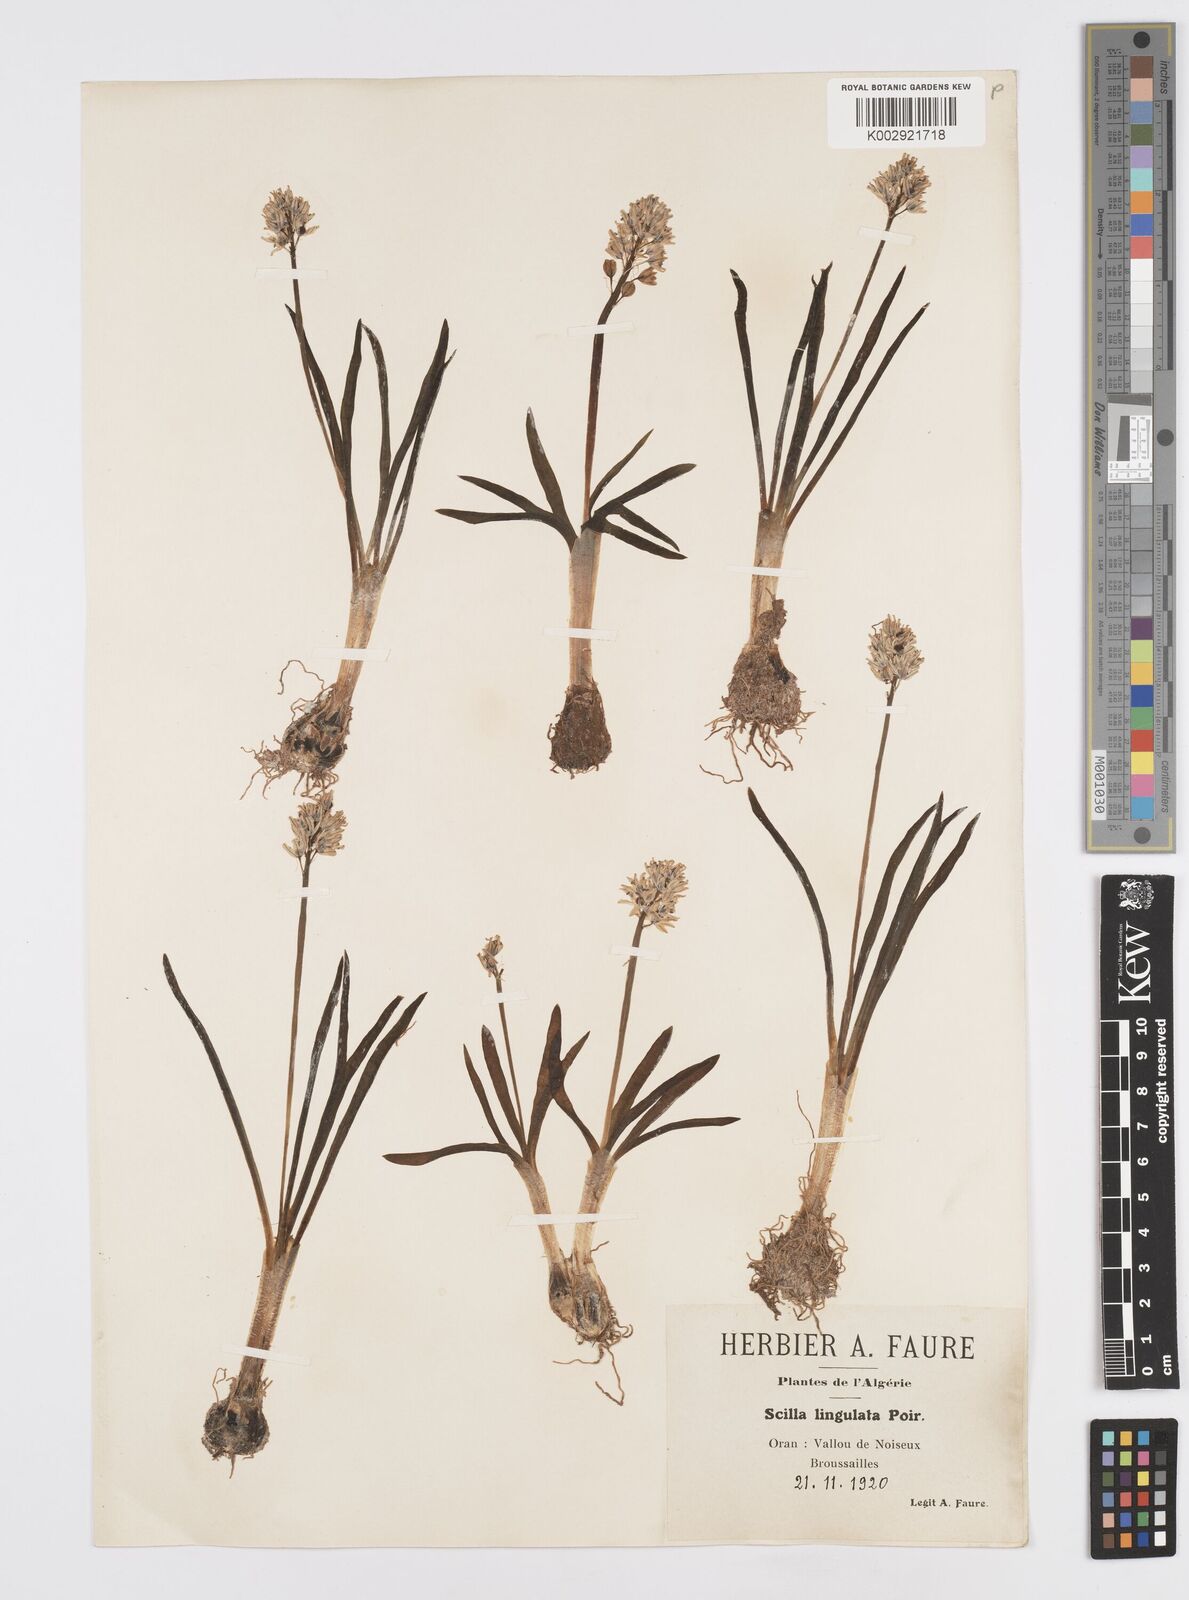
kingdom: Plantae
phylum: Tracheophyta
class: Liliopsida
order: Asparagales
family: Asparagaceae
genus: Hyacinthoides
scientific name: Hyacinthoides lingulata
